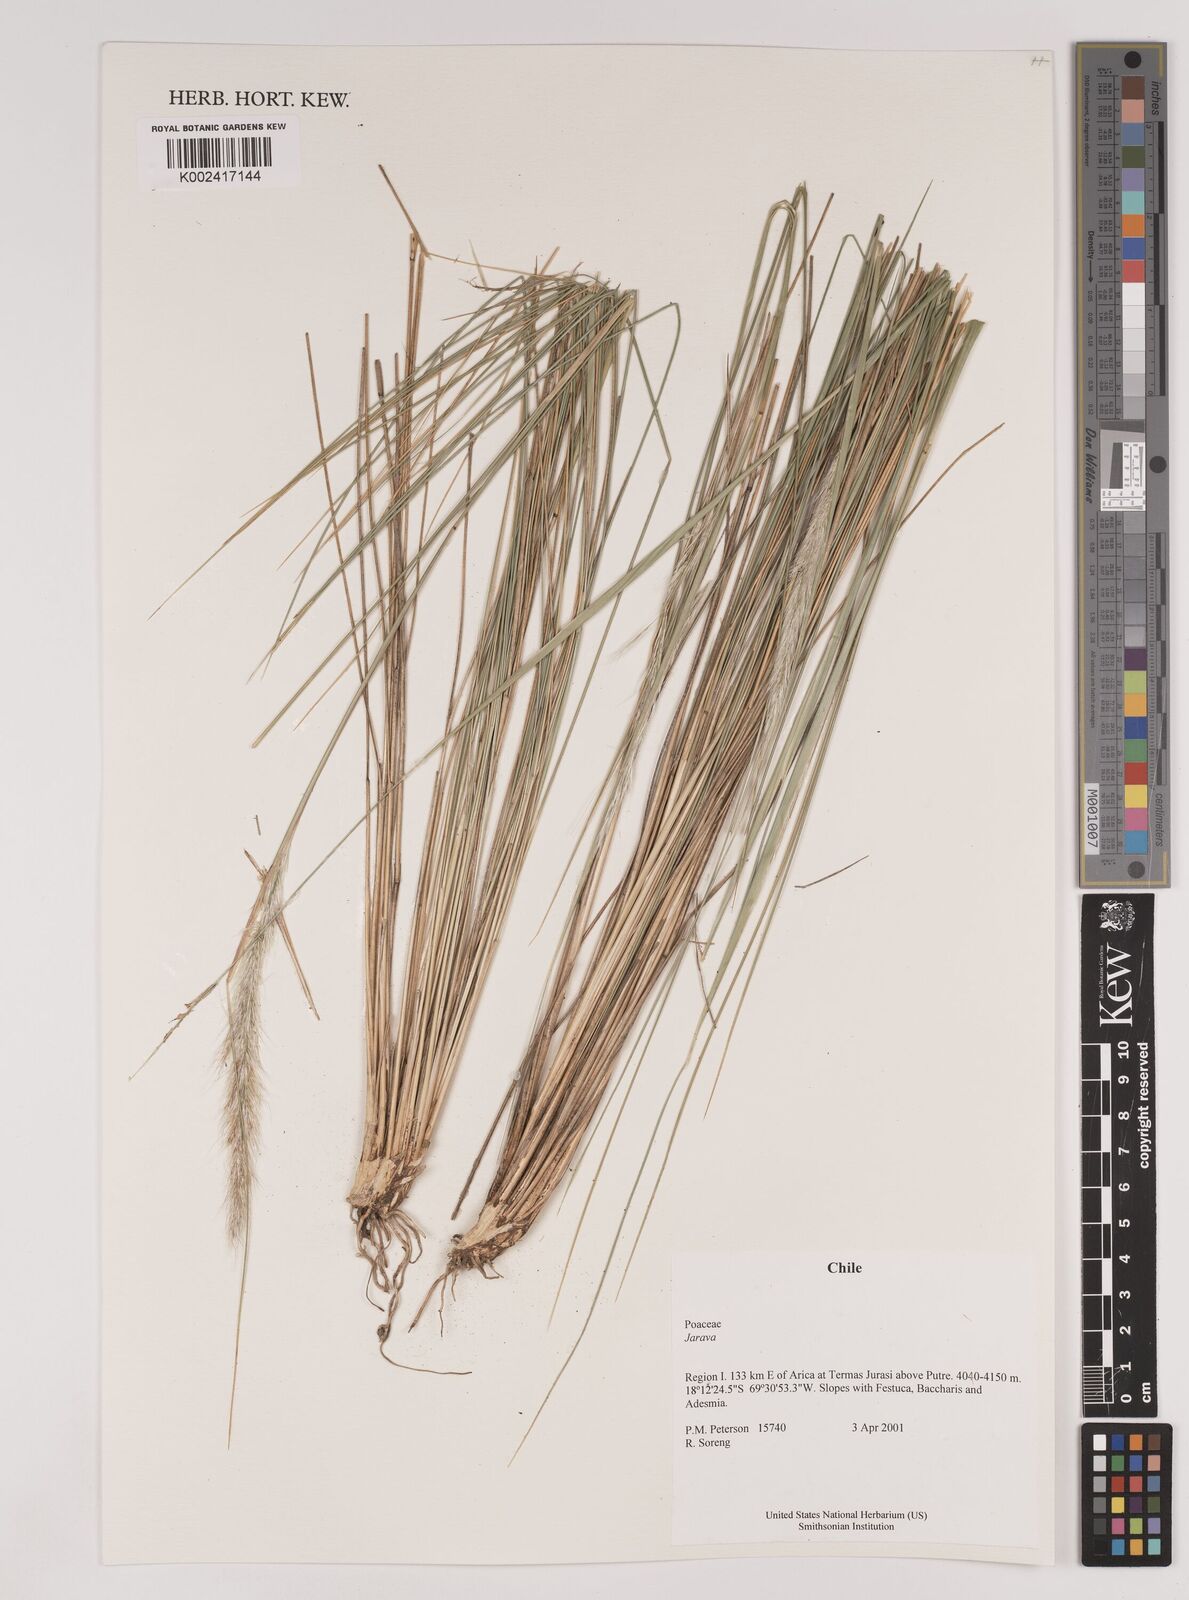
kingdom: Plantae
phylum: Tracheophyta
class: Liliopsida
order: Poales
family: Poaceae
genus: Stipa
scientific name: Stipa
